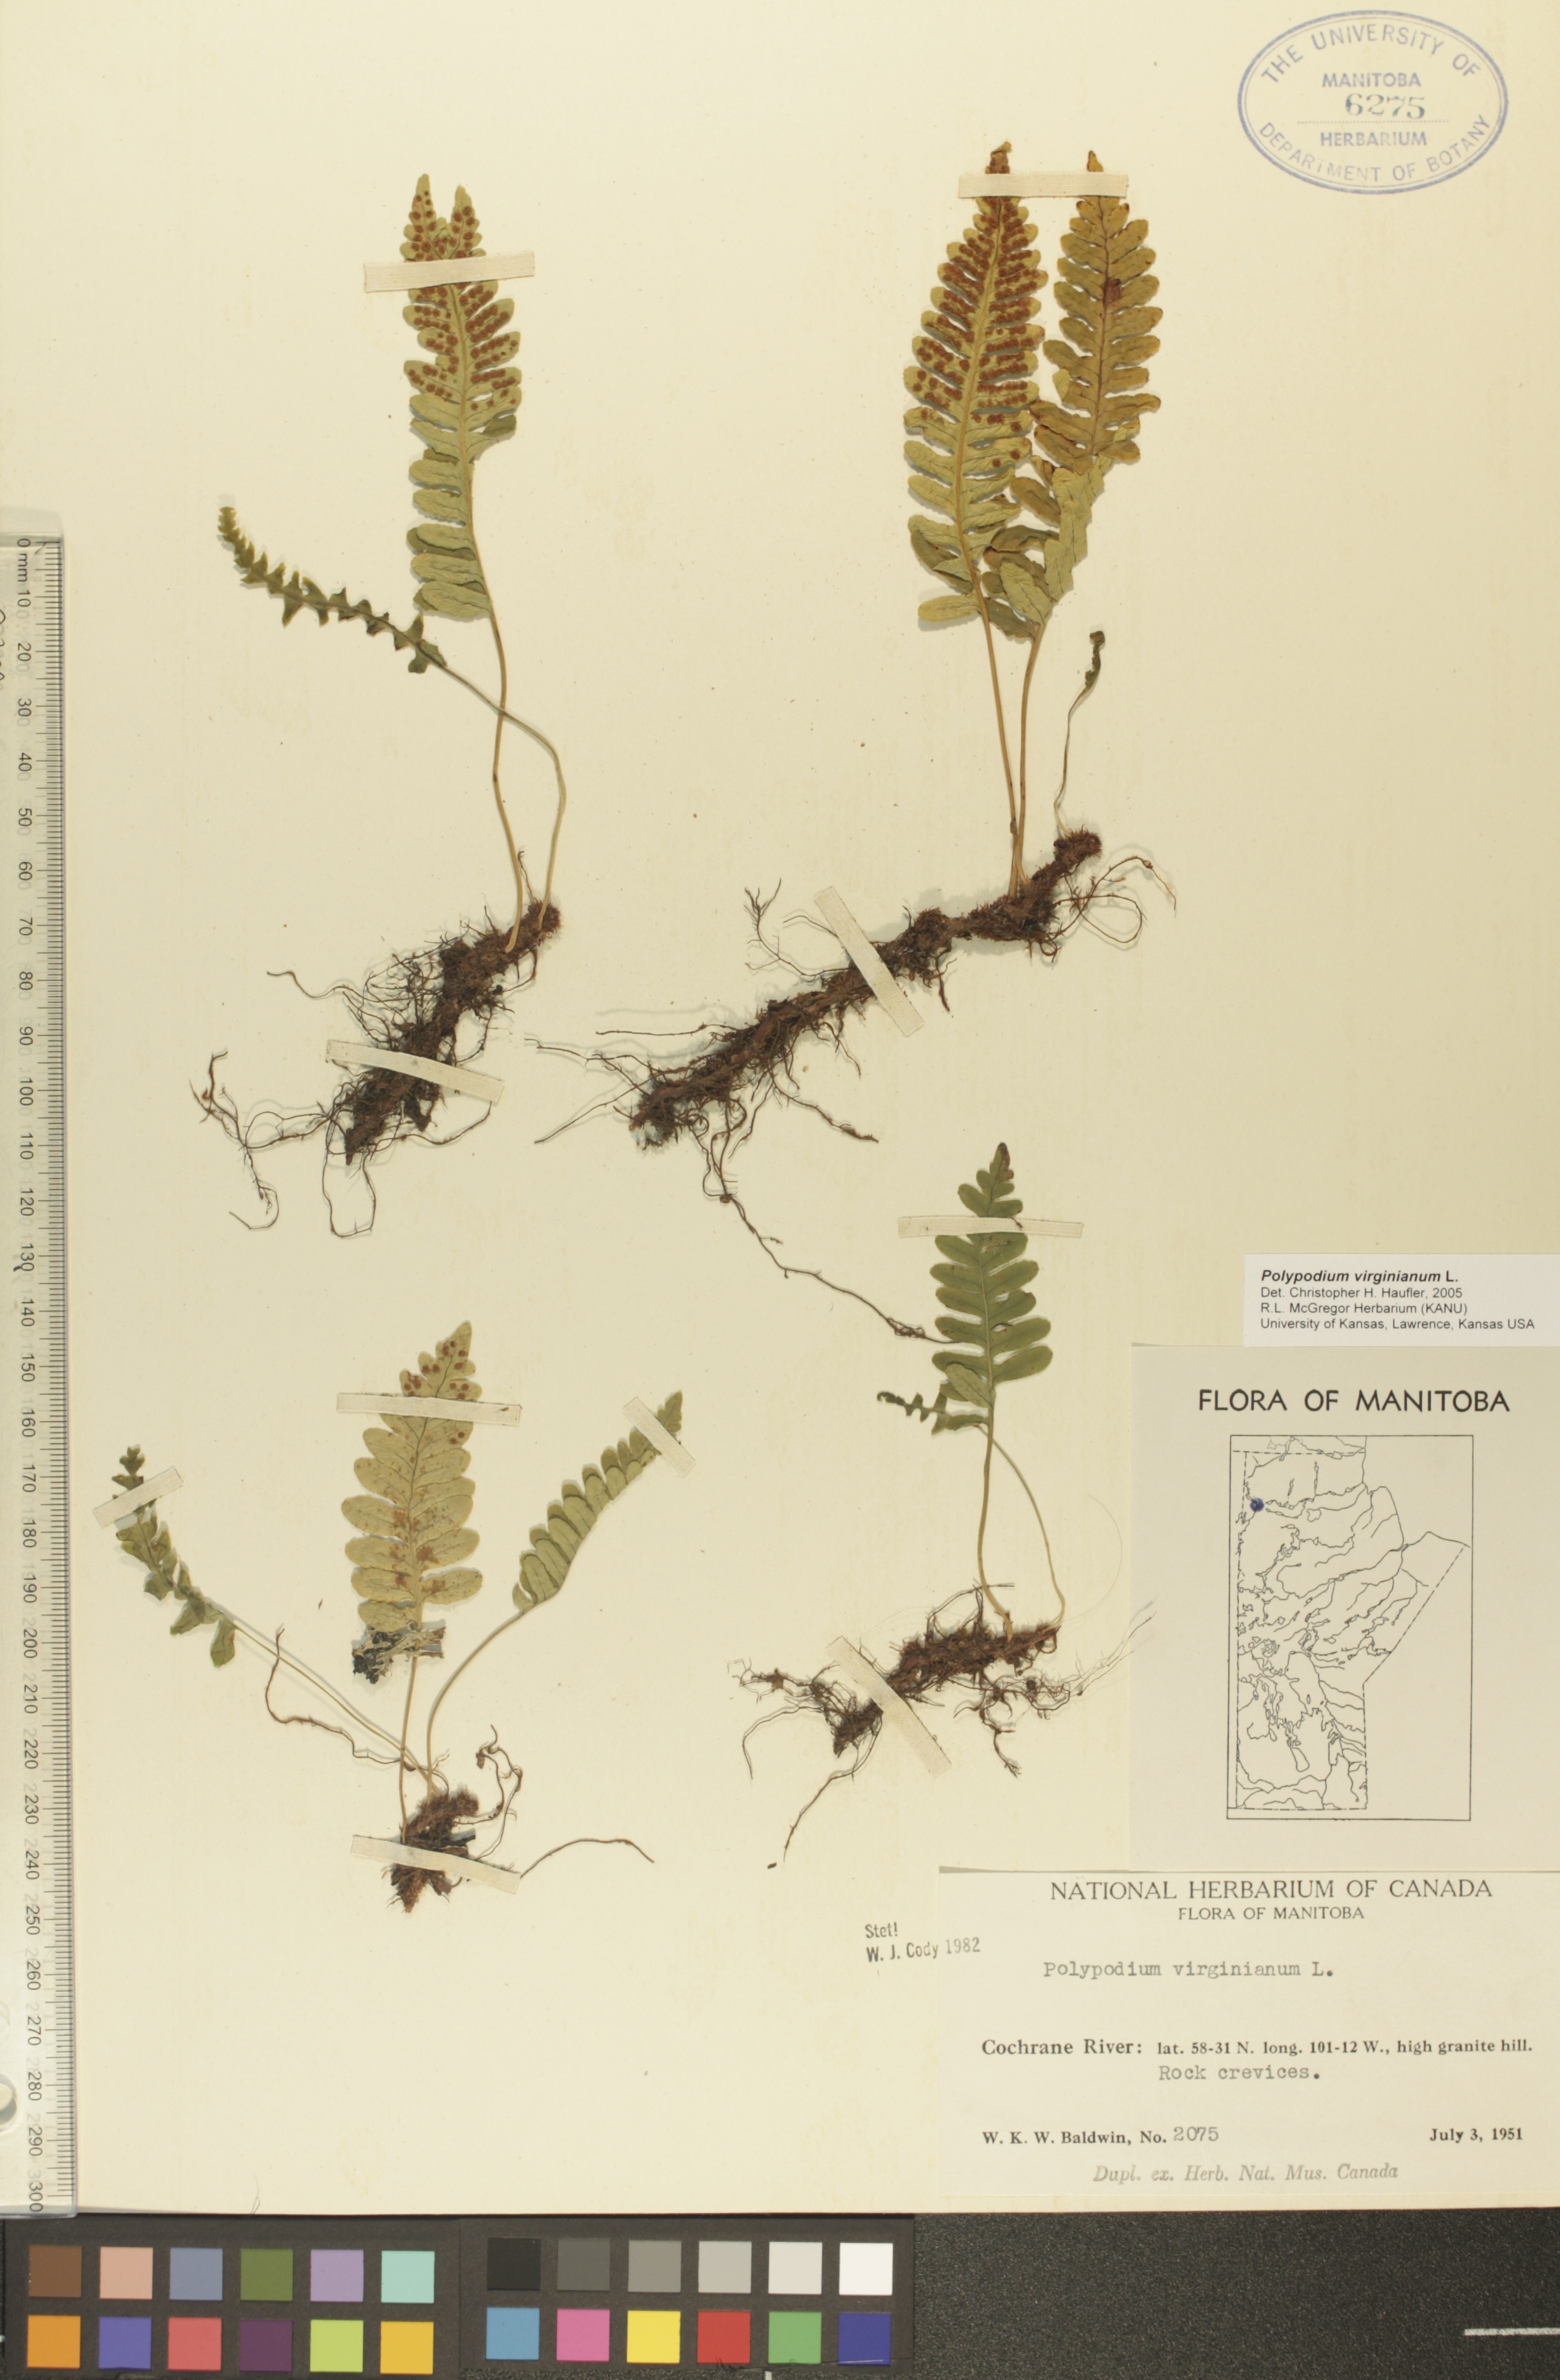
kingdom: Plantae
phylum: Tracheophyta
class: Polypodiopsida
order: Polypodiales
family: Polypodiaceae
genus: Polypodium
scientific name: Polypodium virginianum
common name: American wall fern
